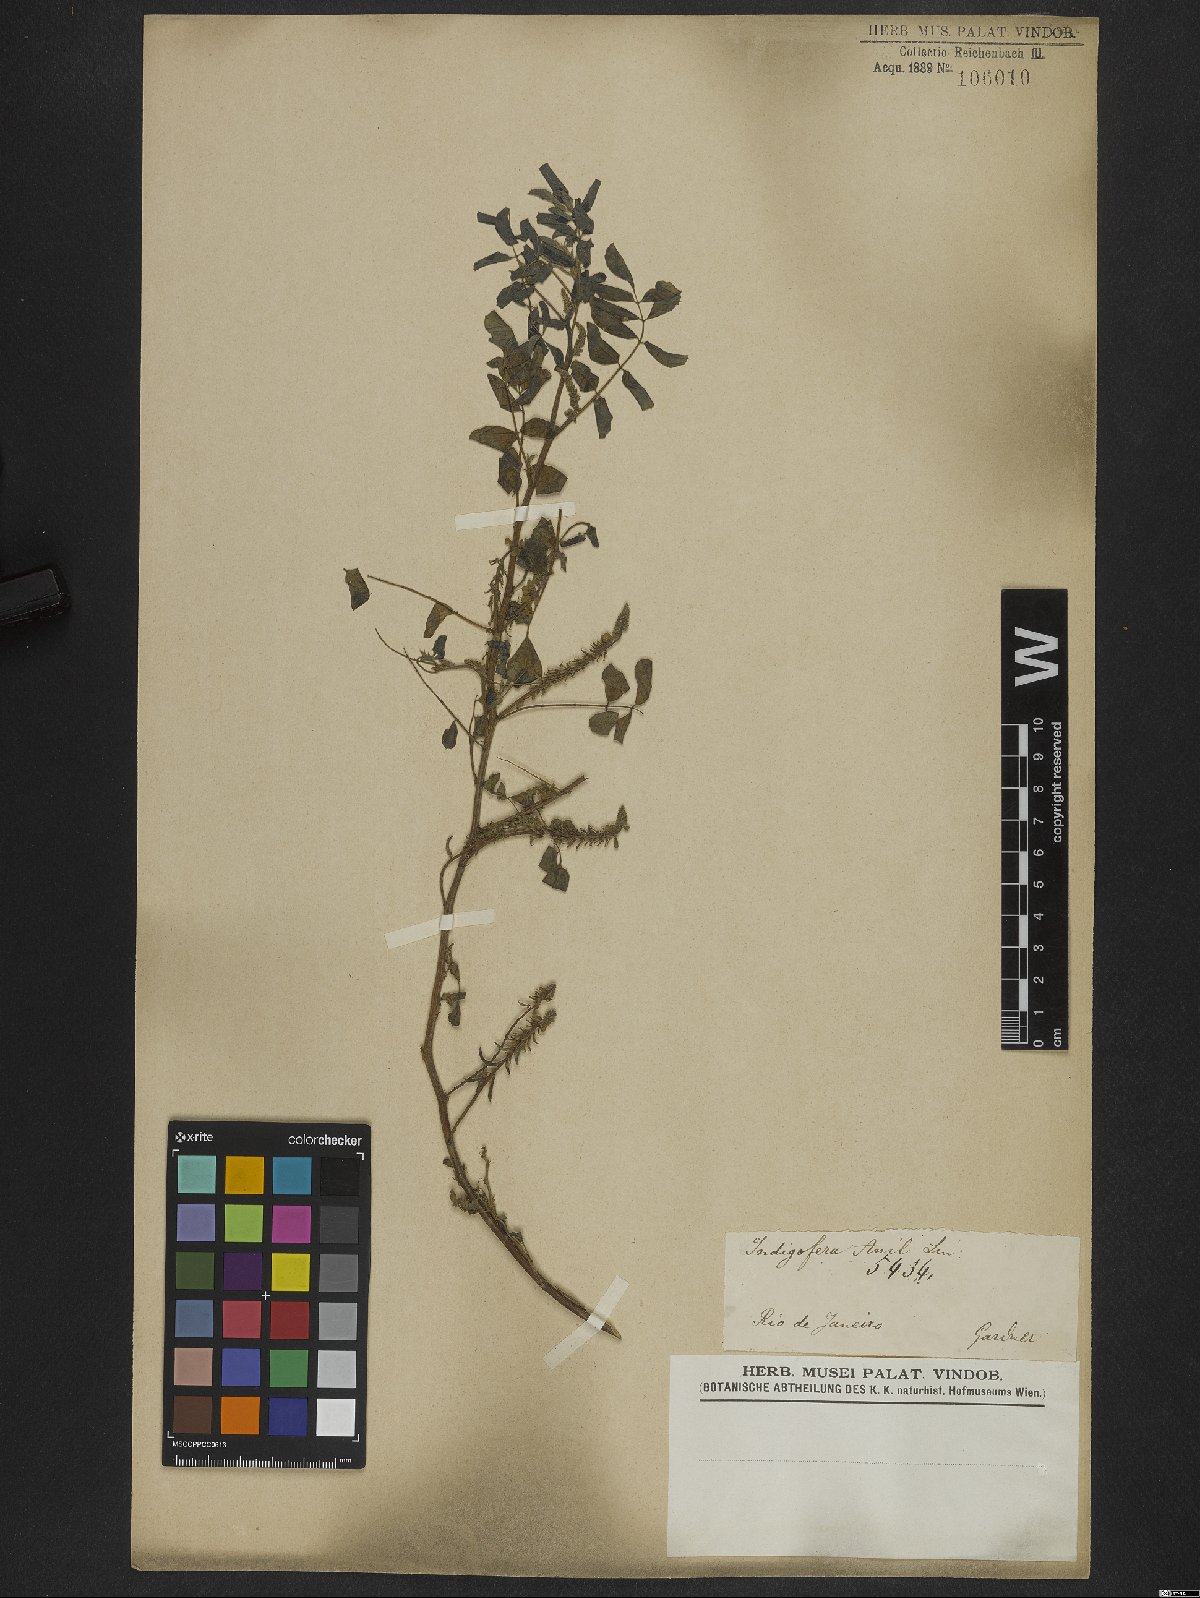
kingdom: Plantae
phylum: Tracheophyta
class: Magnoliopsida
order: Fabales
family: Fabaceae
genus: Indigofera
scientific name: Indigofera suffruticosa
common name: Anil de pasto
